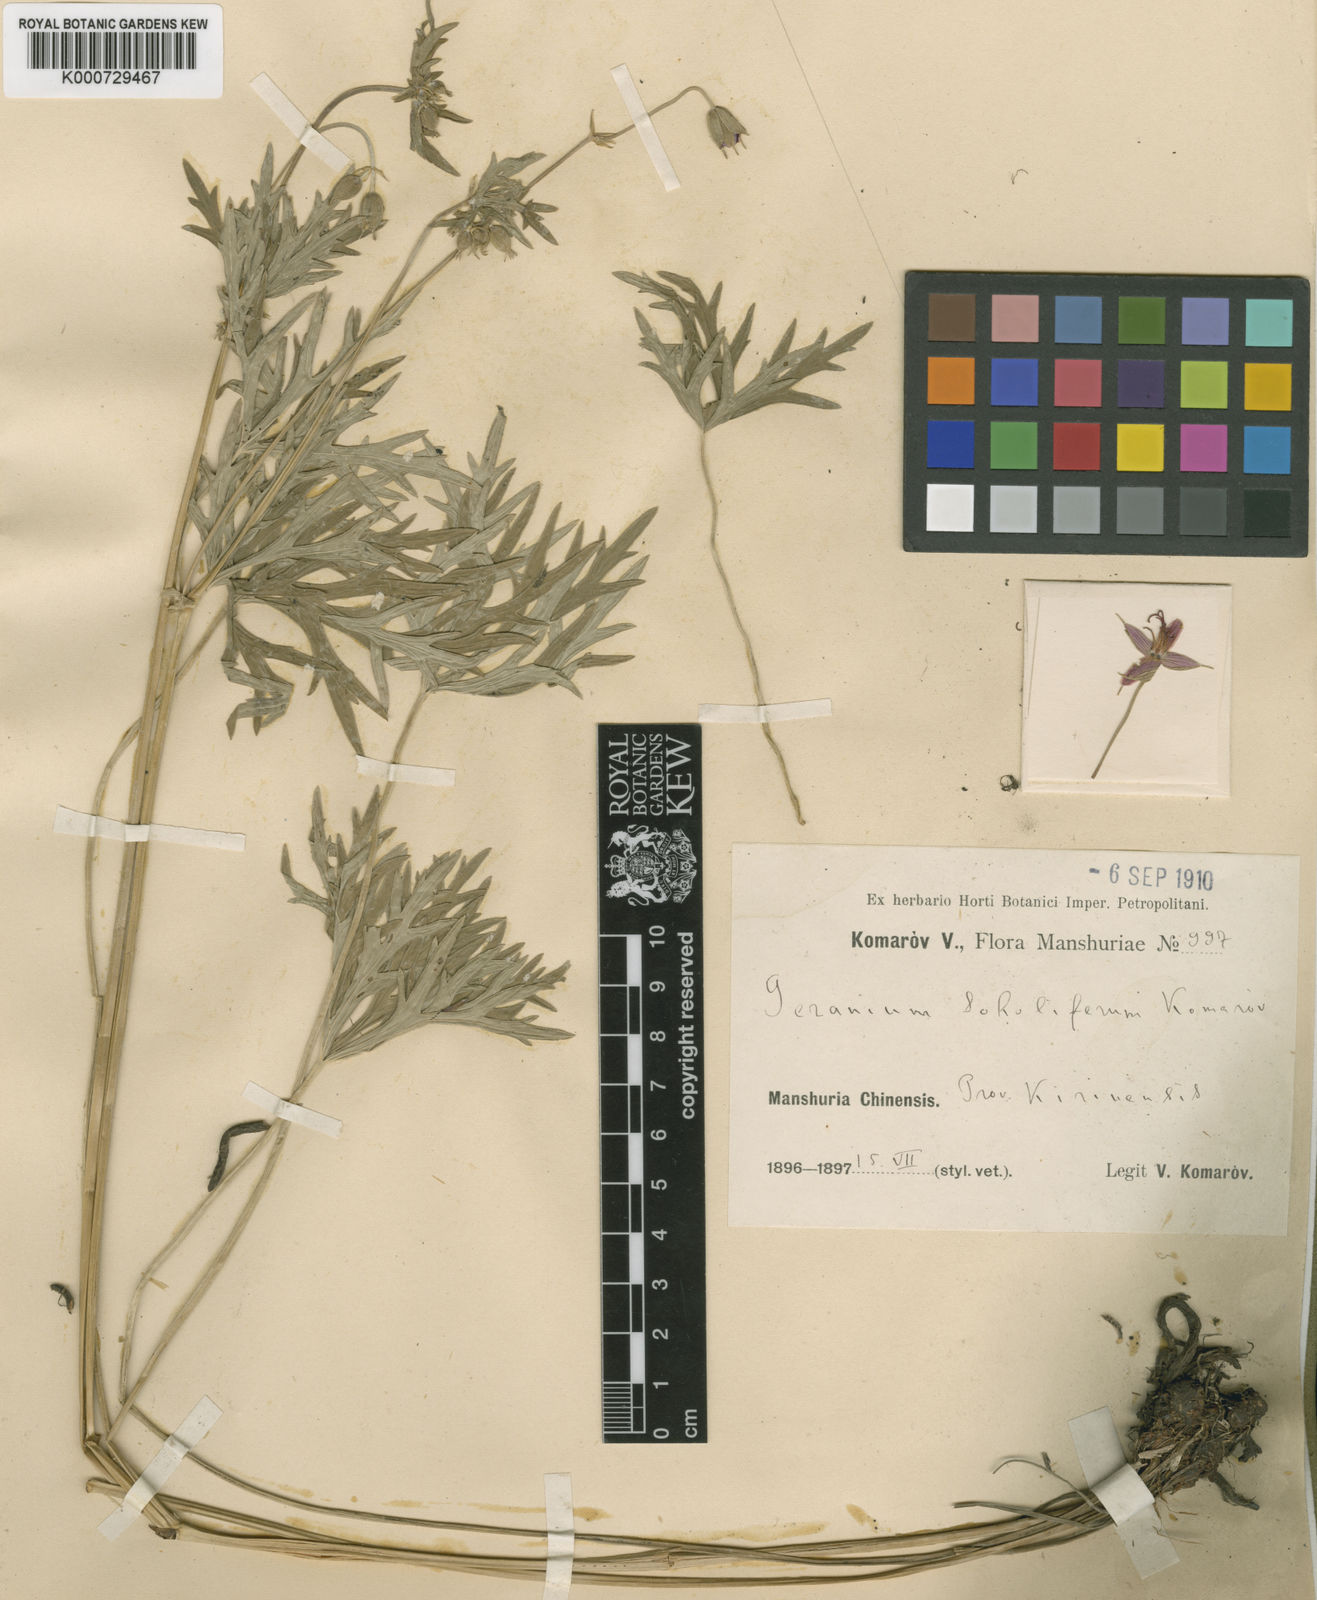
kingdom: Plantae
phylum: Tracheophyta
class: Magnoliopsida
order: Geraniales
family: Geraniaceae
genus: Geranium
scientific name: Geranium soboliferum
